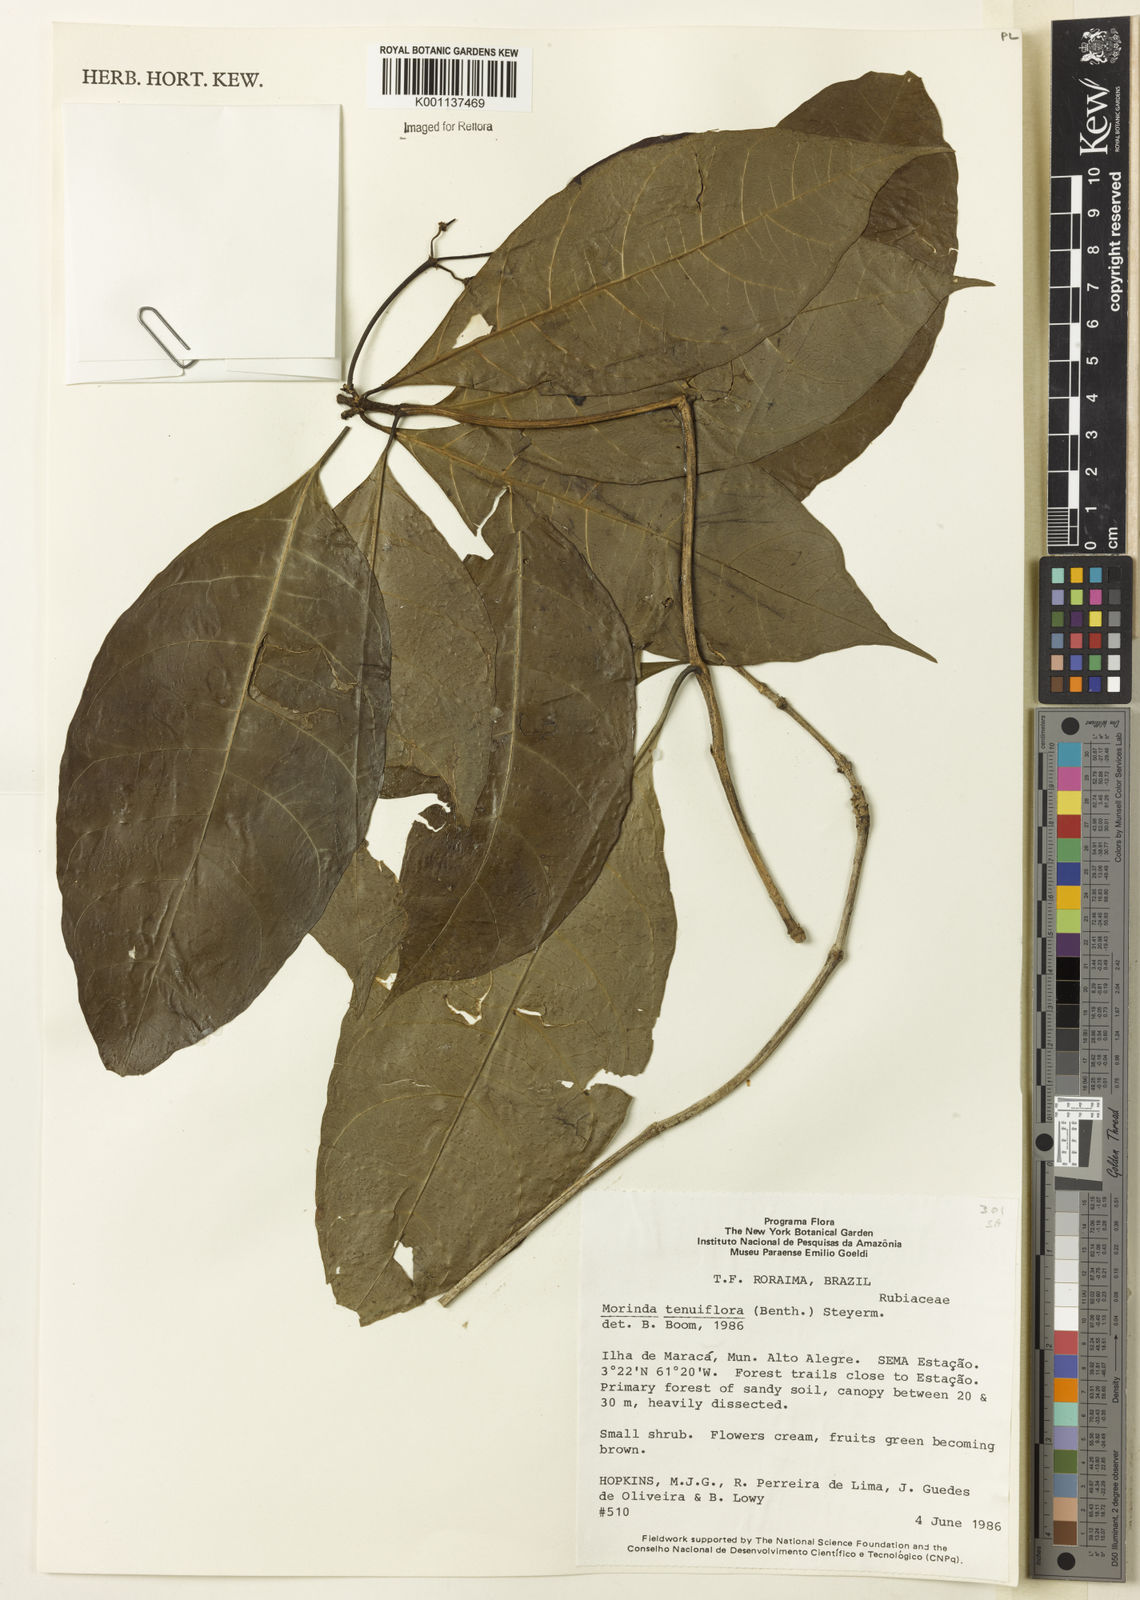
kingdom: Plantae
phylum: Tracheophyta
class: Magnoliopsida
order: Gentianales
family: Rubiaceae
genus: Appunia
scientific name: Appunia tenuiflora
